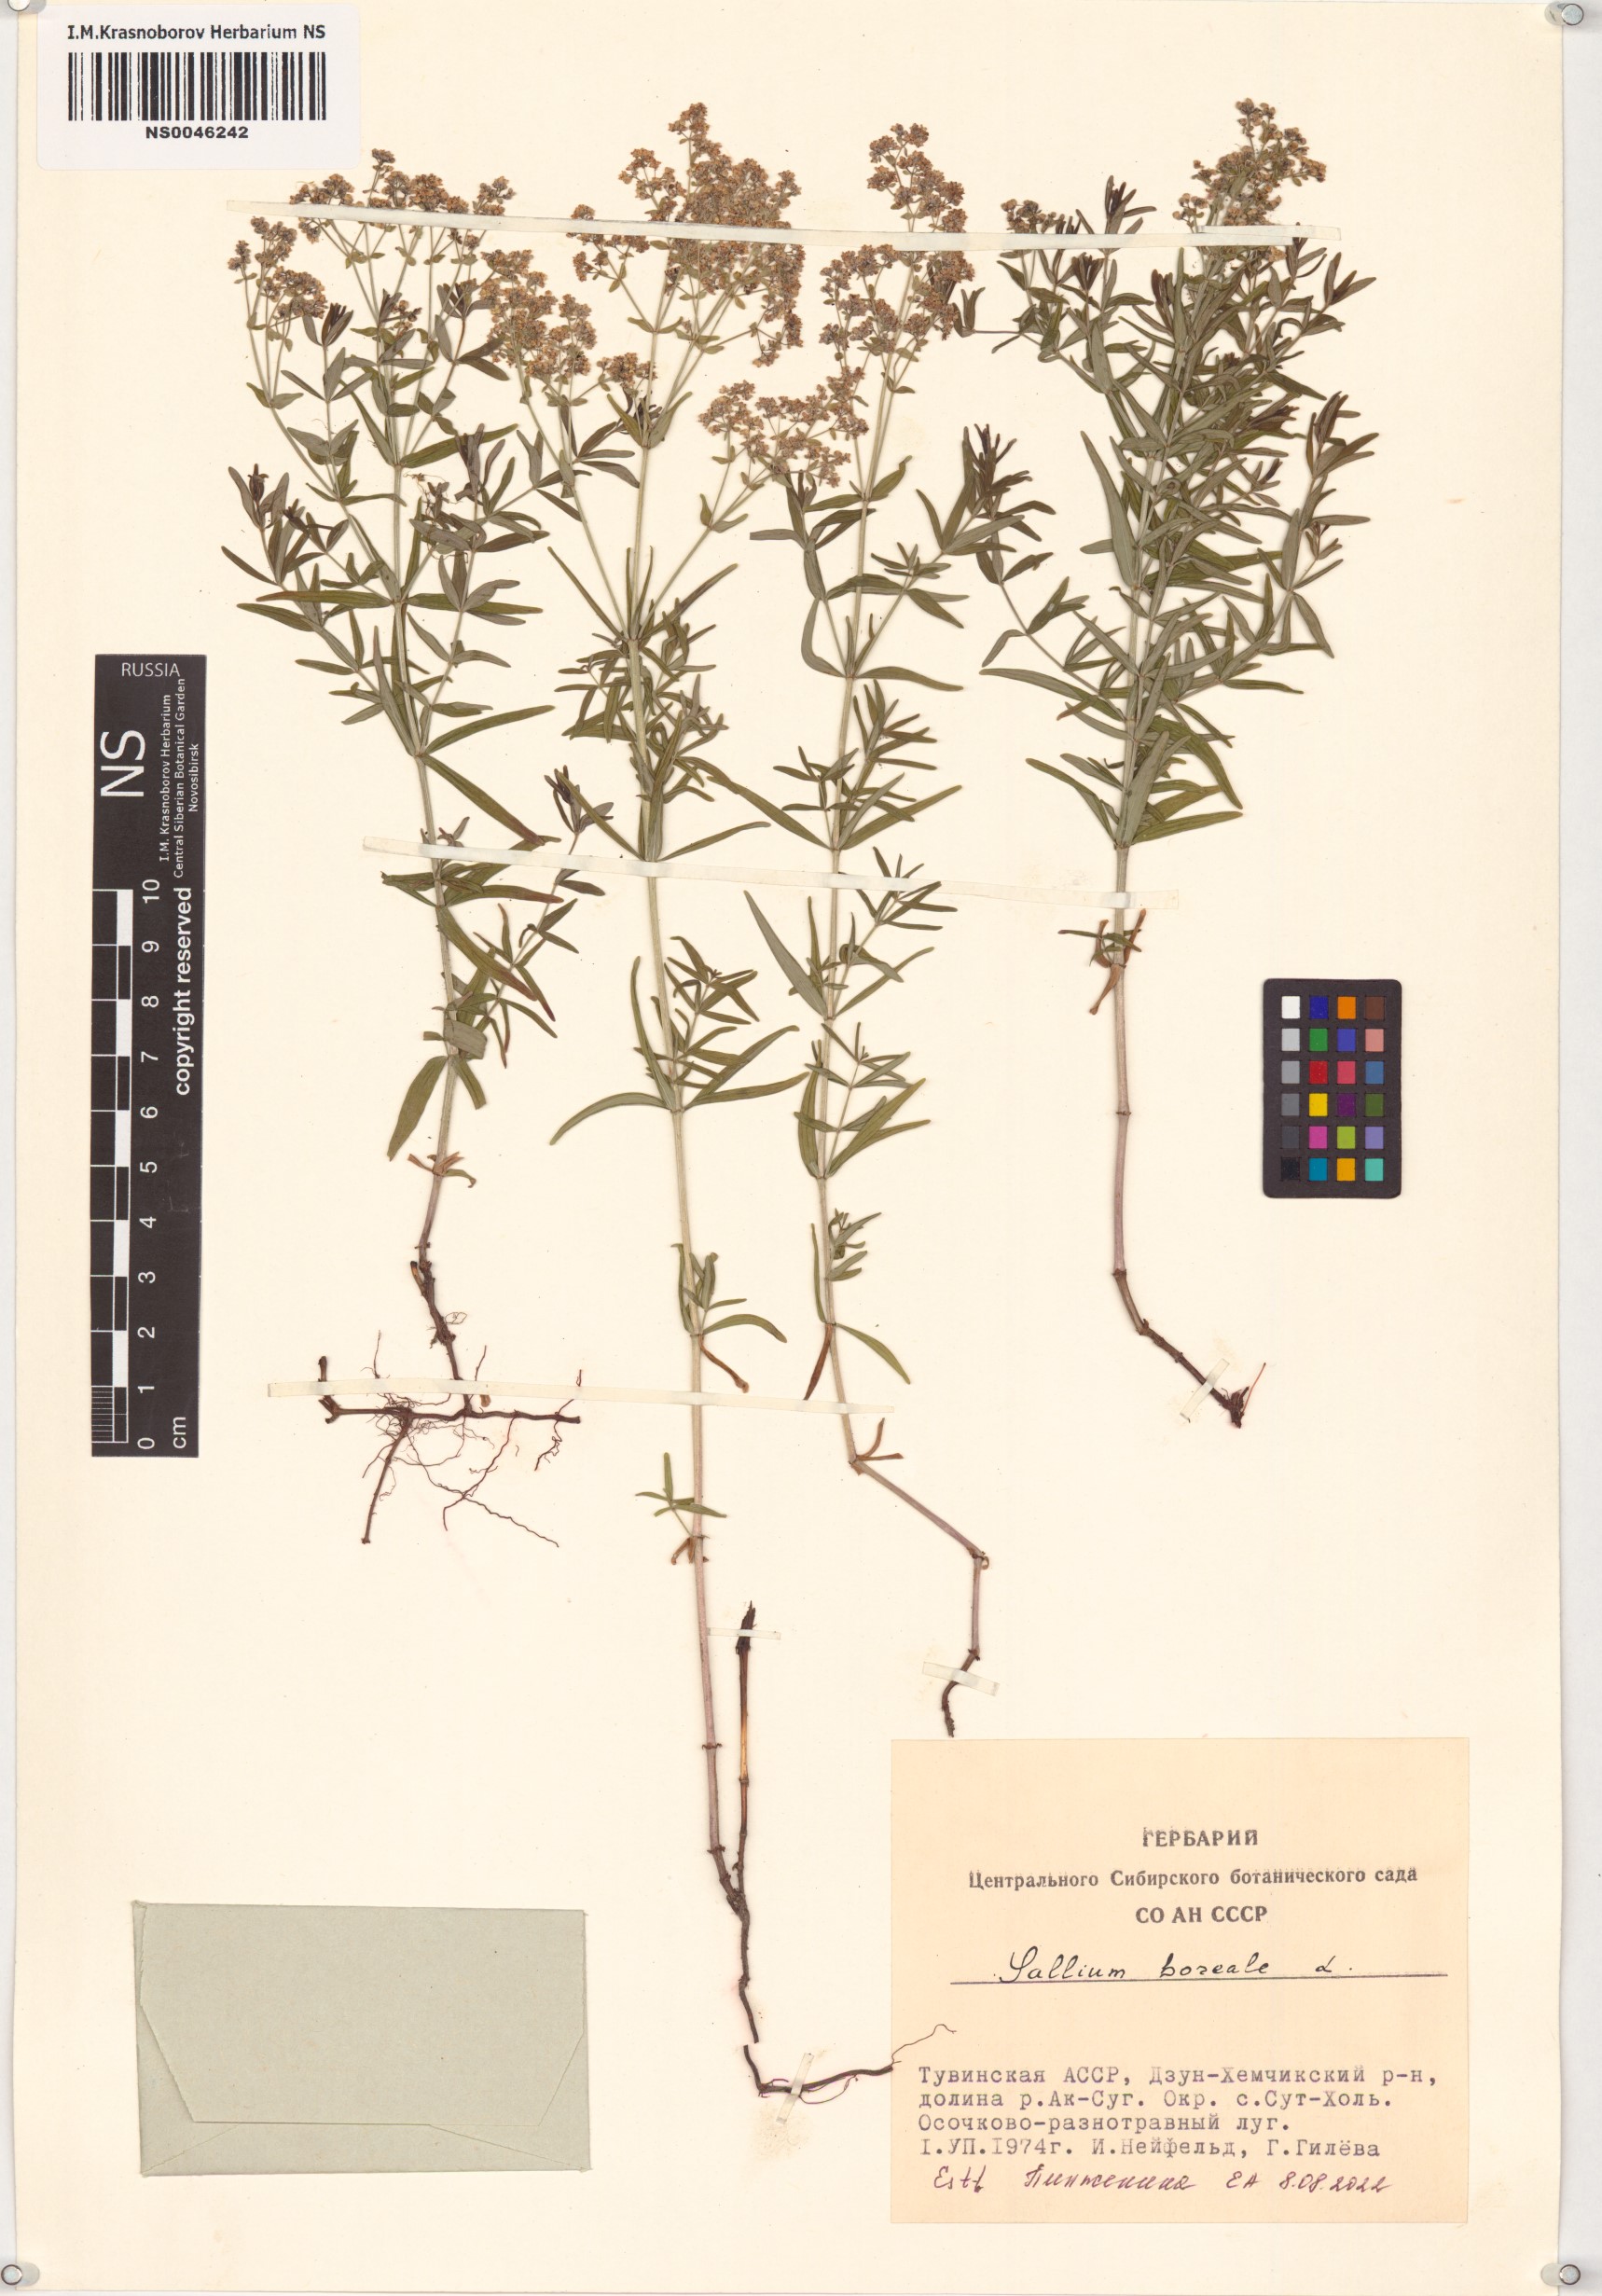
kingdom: Plantae
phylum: Tracheophyta
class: Magnoliopsida
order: Gentianales
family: Rubiaceae
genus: Galium
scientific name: Galium boreale
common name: Northern bedstraw
